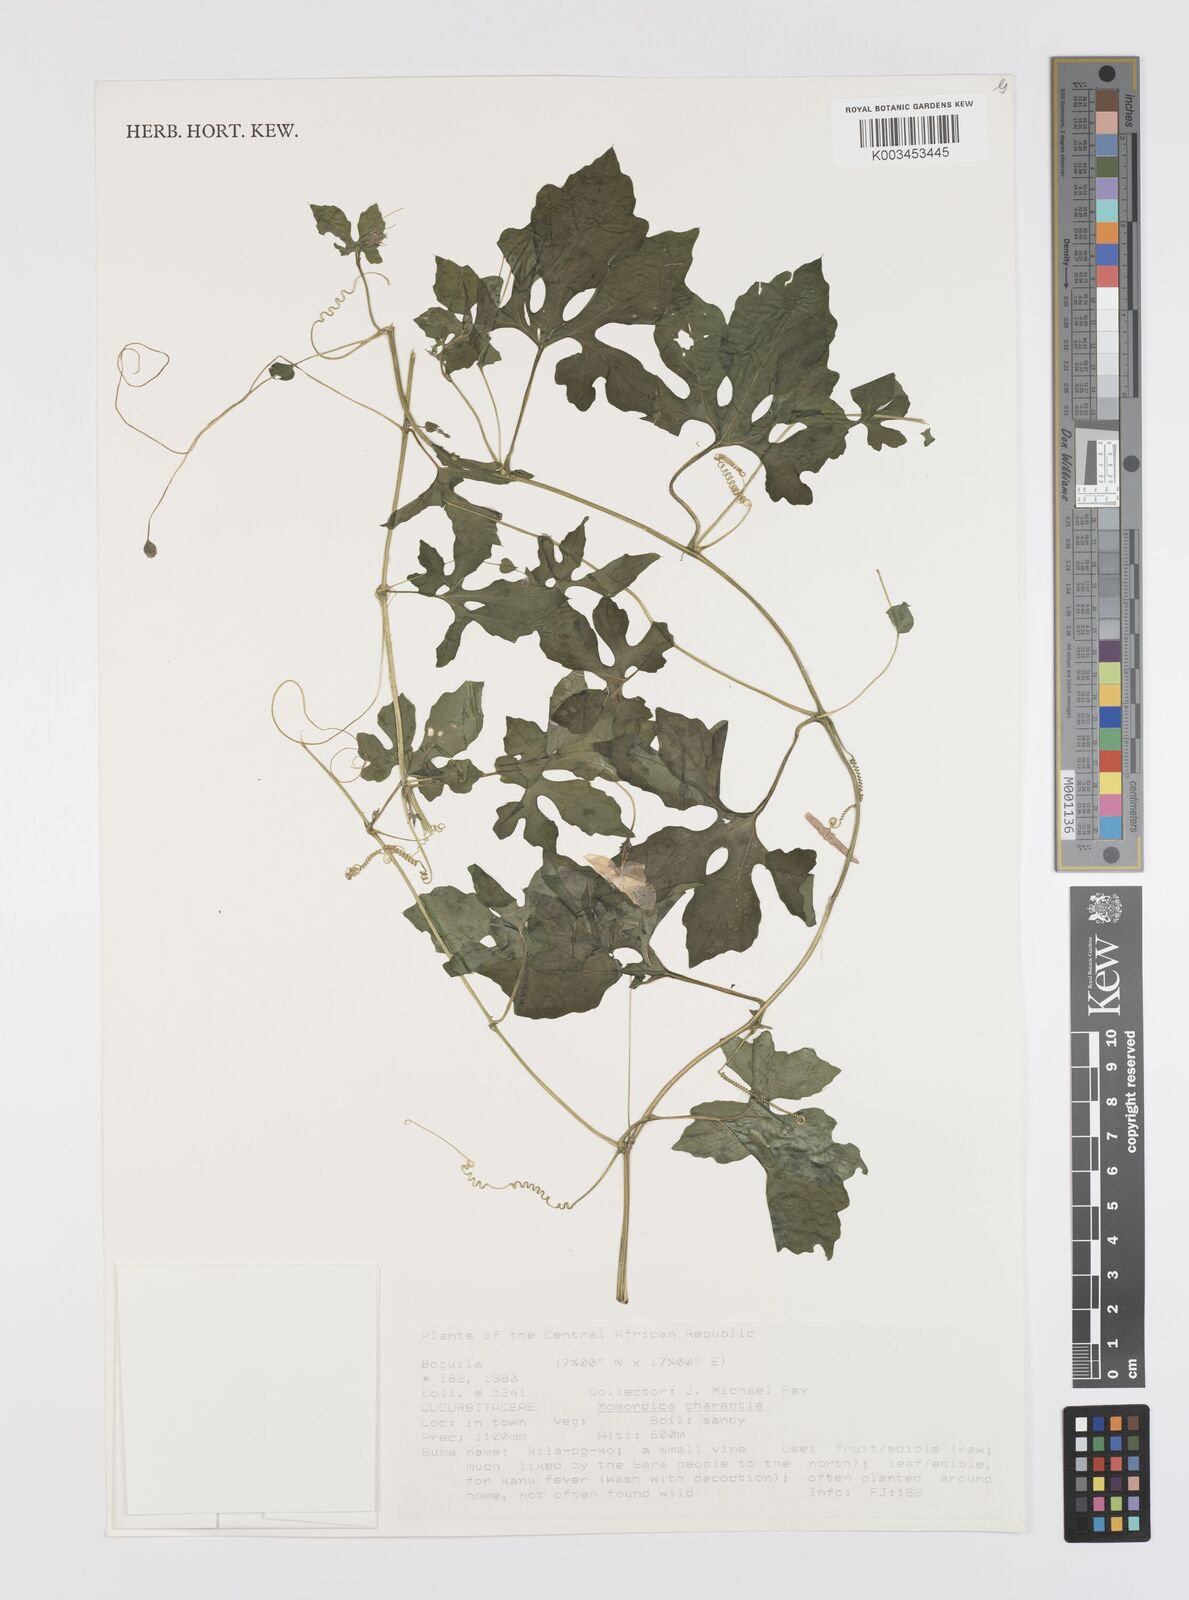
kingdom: Plantae
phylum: Tracheophyta
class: Magnoliopsida
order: Cucurbitales
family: Cucurbitaceae
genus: Momordica
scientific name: Momordica charantia
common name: Balsampear
